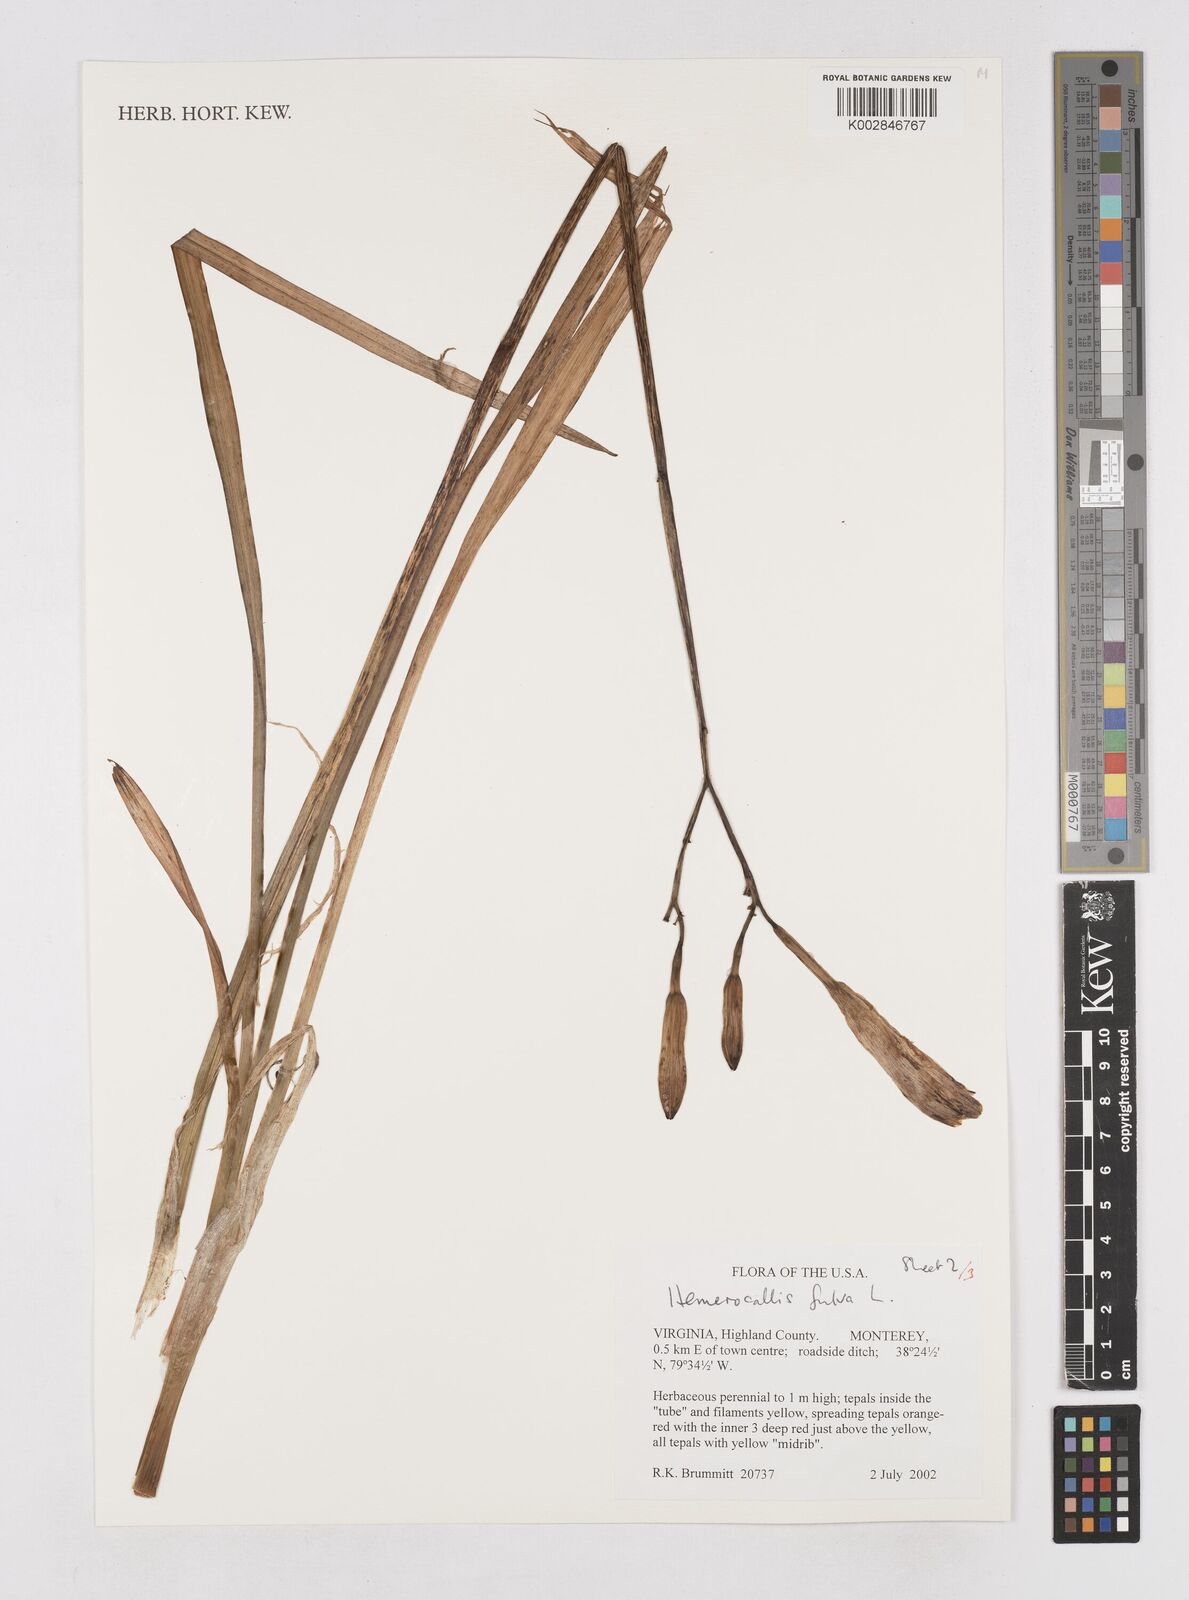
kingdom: Plantae
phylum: Tracheophyta
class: Liliopsida
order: Asparagales
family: Asphodelaceae
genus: Hemerocallis
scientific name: Hemerocallis fulva
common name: Orange day-lily
